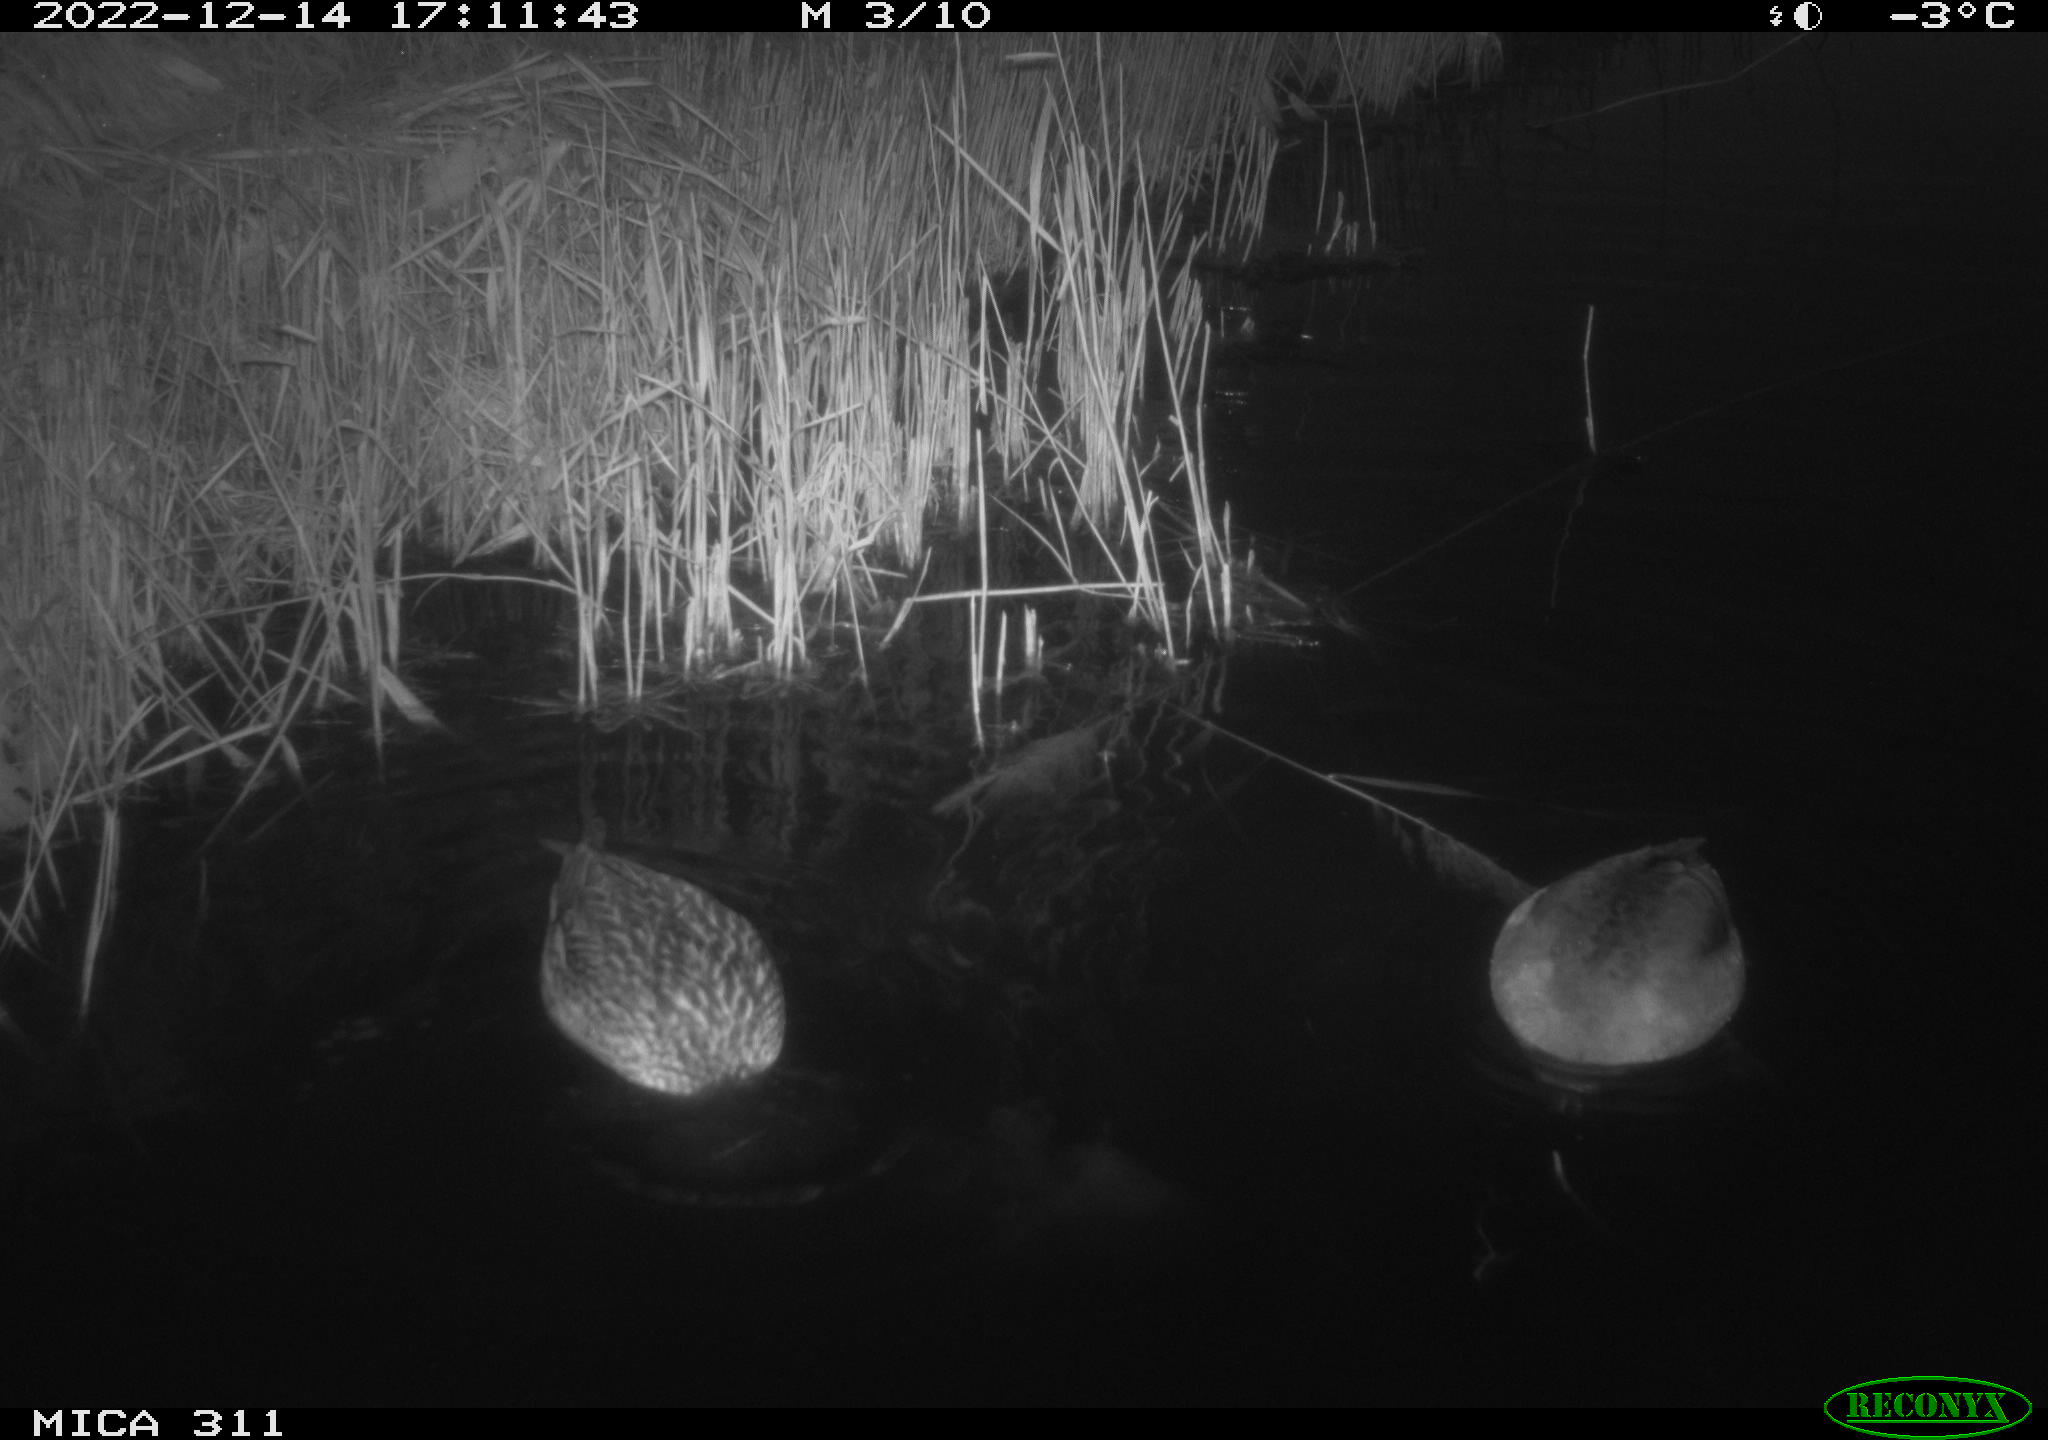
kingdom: Animalia
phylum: Chordata
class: Aves
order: Anseriformes
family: Anatidae
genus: Anas
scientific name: Anas
